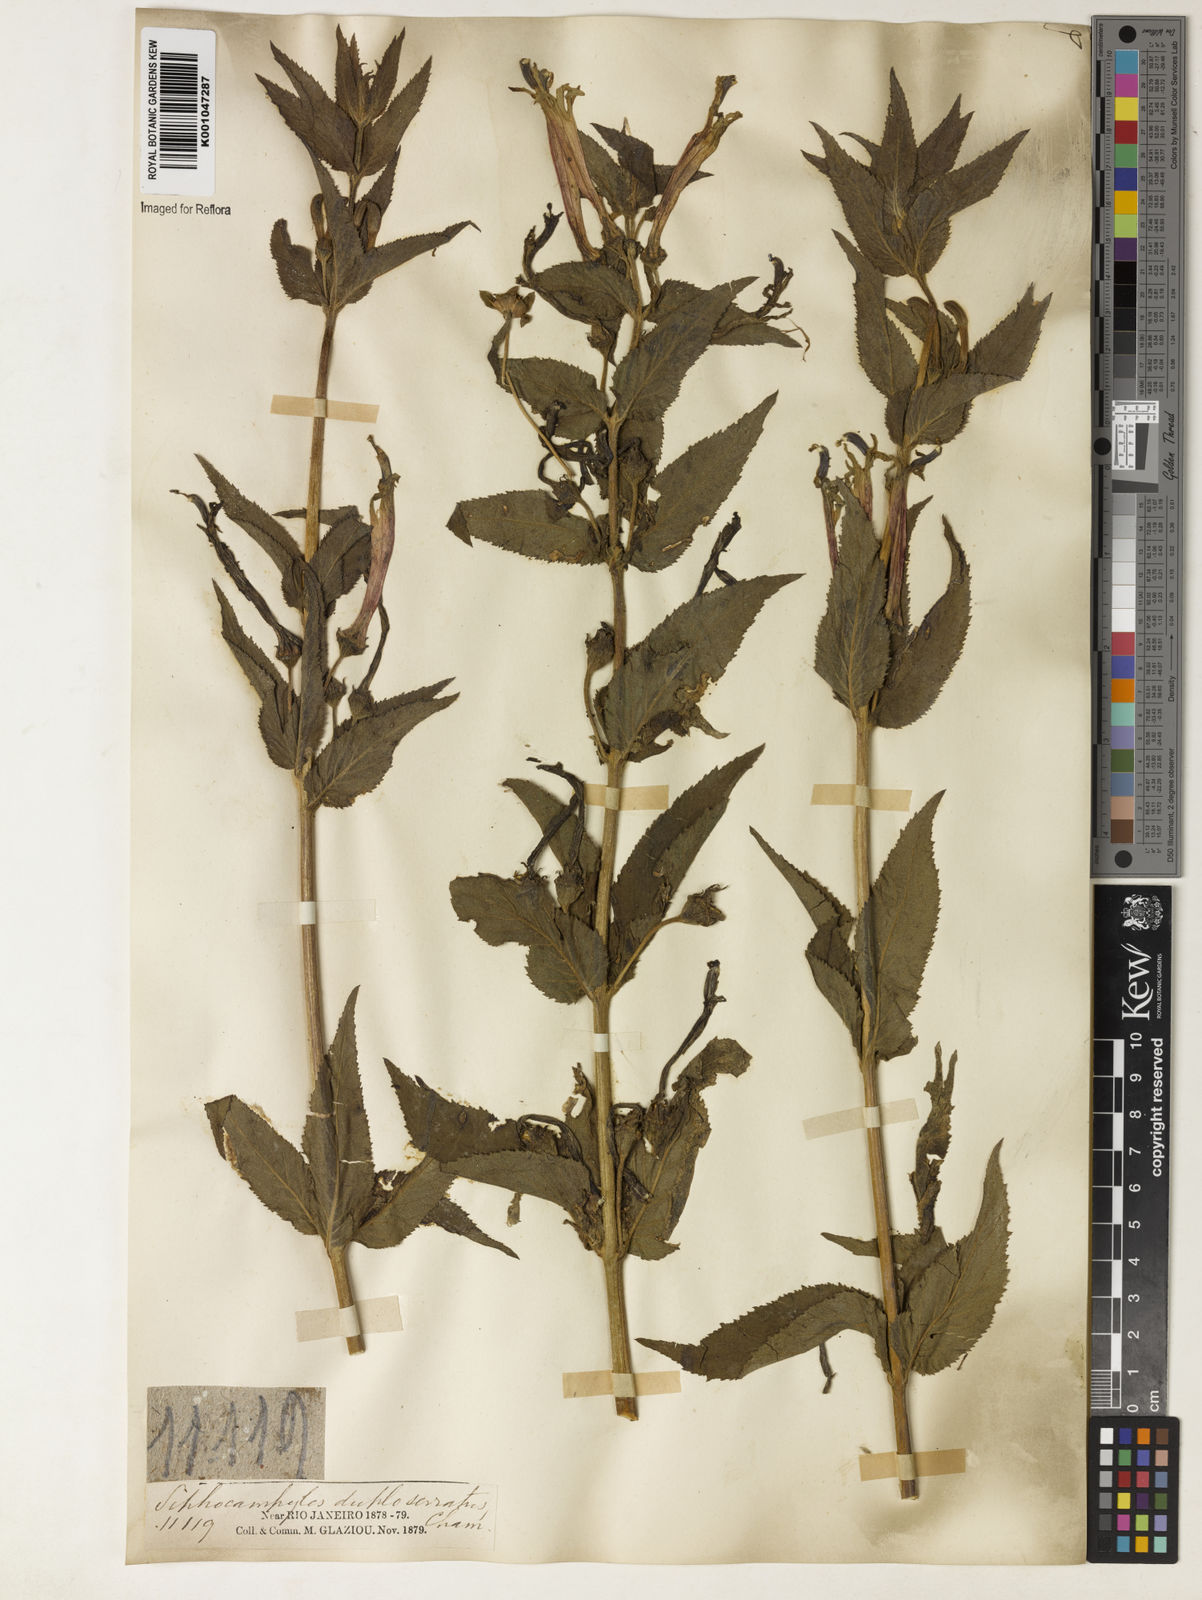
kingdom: Plantae
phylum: Tracheophyta
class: Magnoliopsida
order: Asterales
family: Campanulaceae
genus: Siphocampylus
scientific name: Siphocampylus duploserratus
